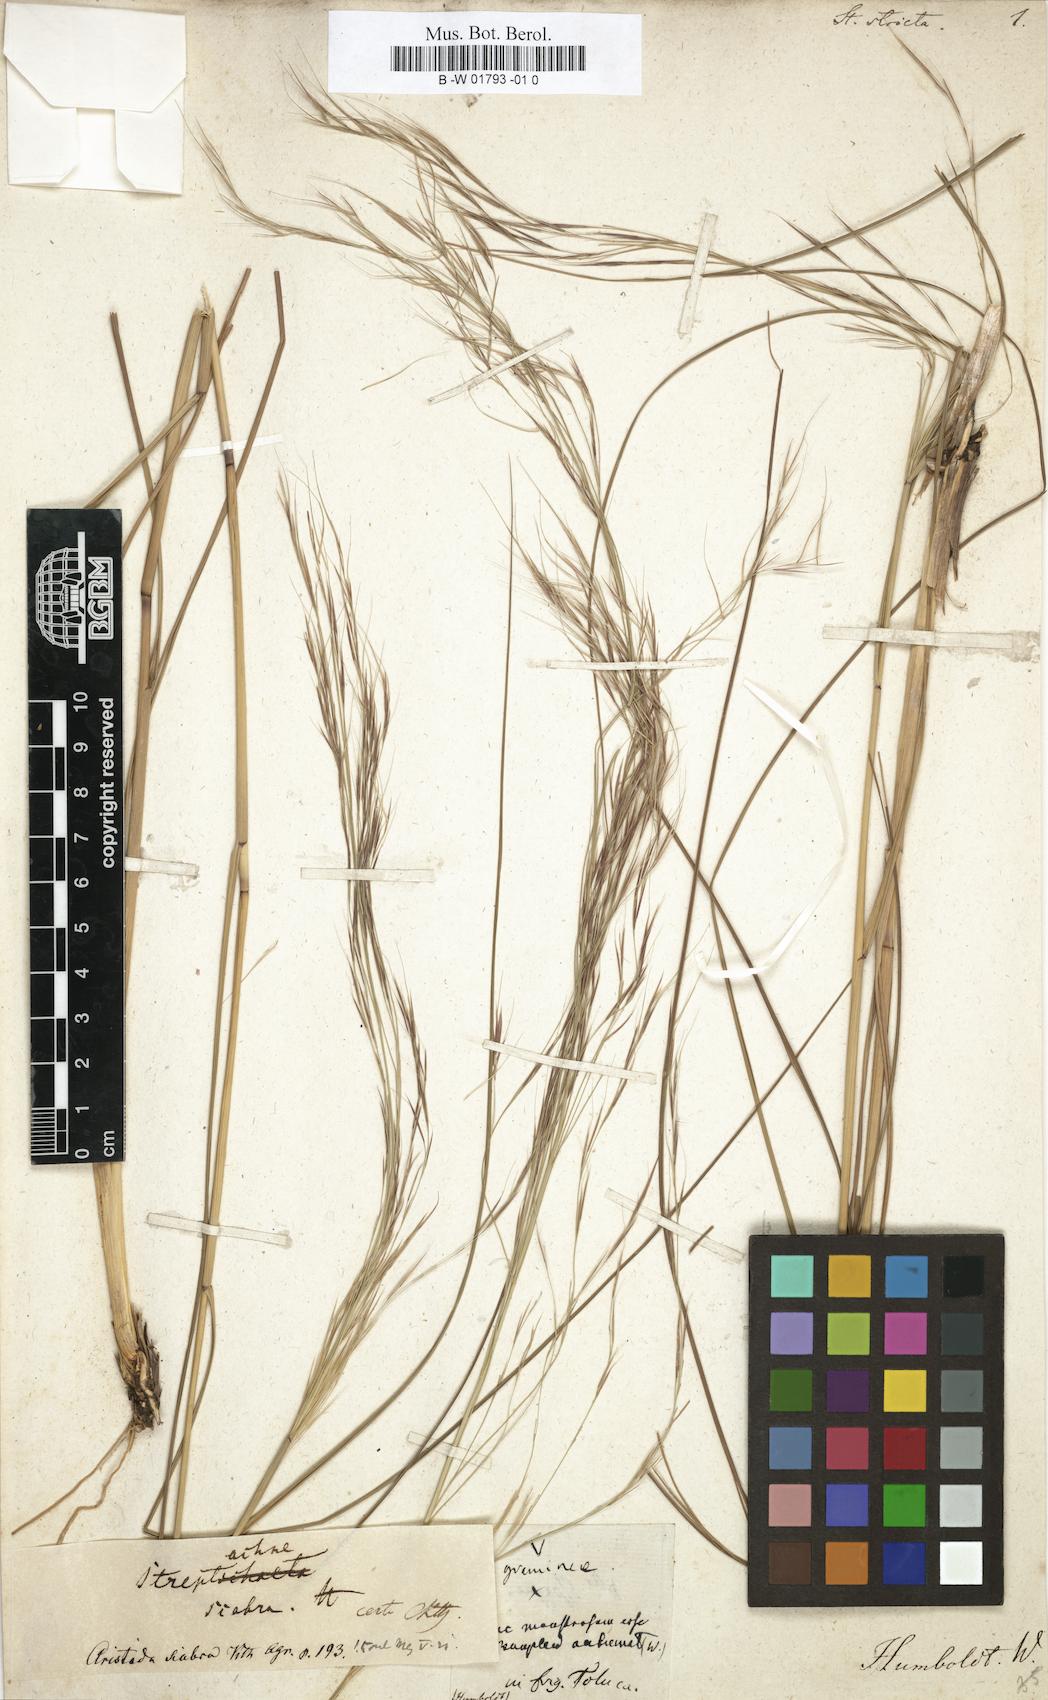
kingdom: Plantae
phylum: Tracheophyta
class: Liliopsida
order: Poales
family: Poaceae
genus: Sorghastrum
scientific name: Sorghastrum nutans
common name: Indian grass
